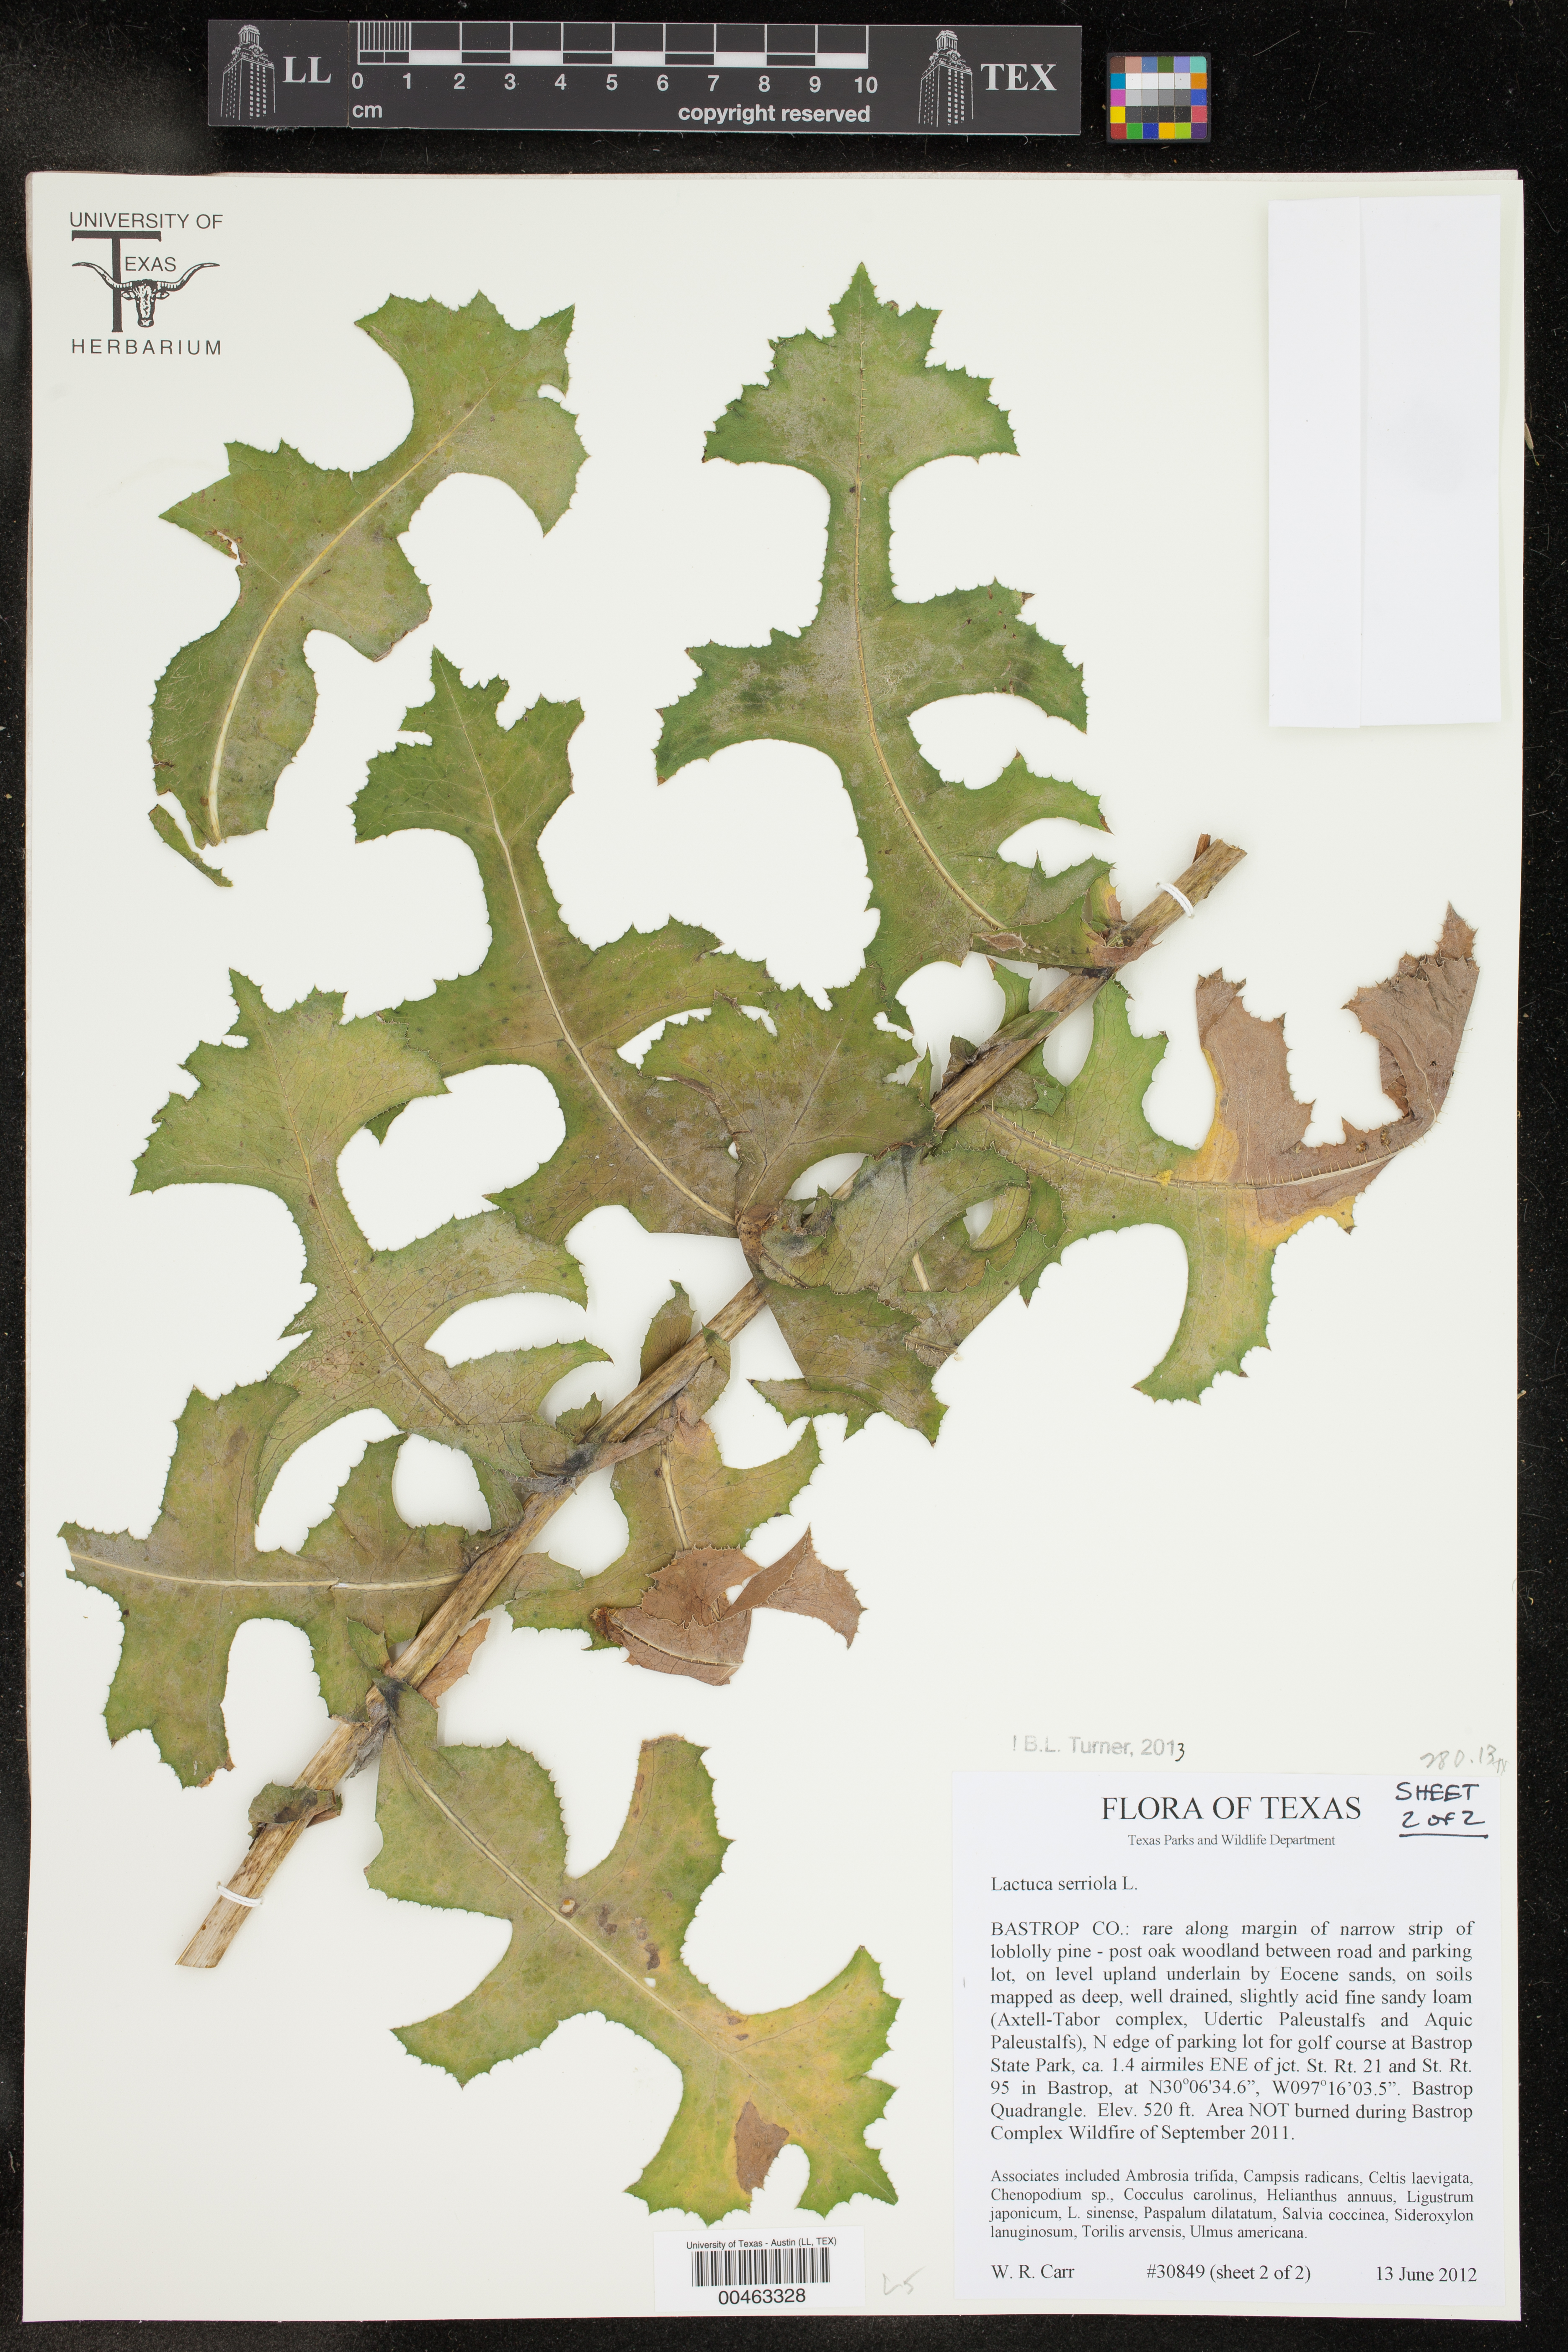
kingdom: Plantae
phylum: Tracheophyta
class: Magnoliopsida
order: Asterales
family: Asteraceae
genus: Lactuca
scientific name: Lactuca serriola
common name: Prickly lettuce
